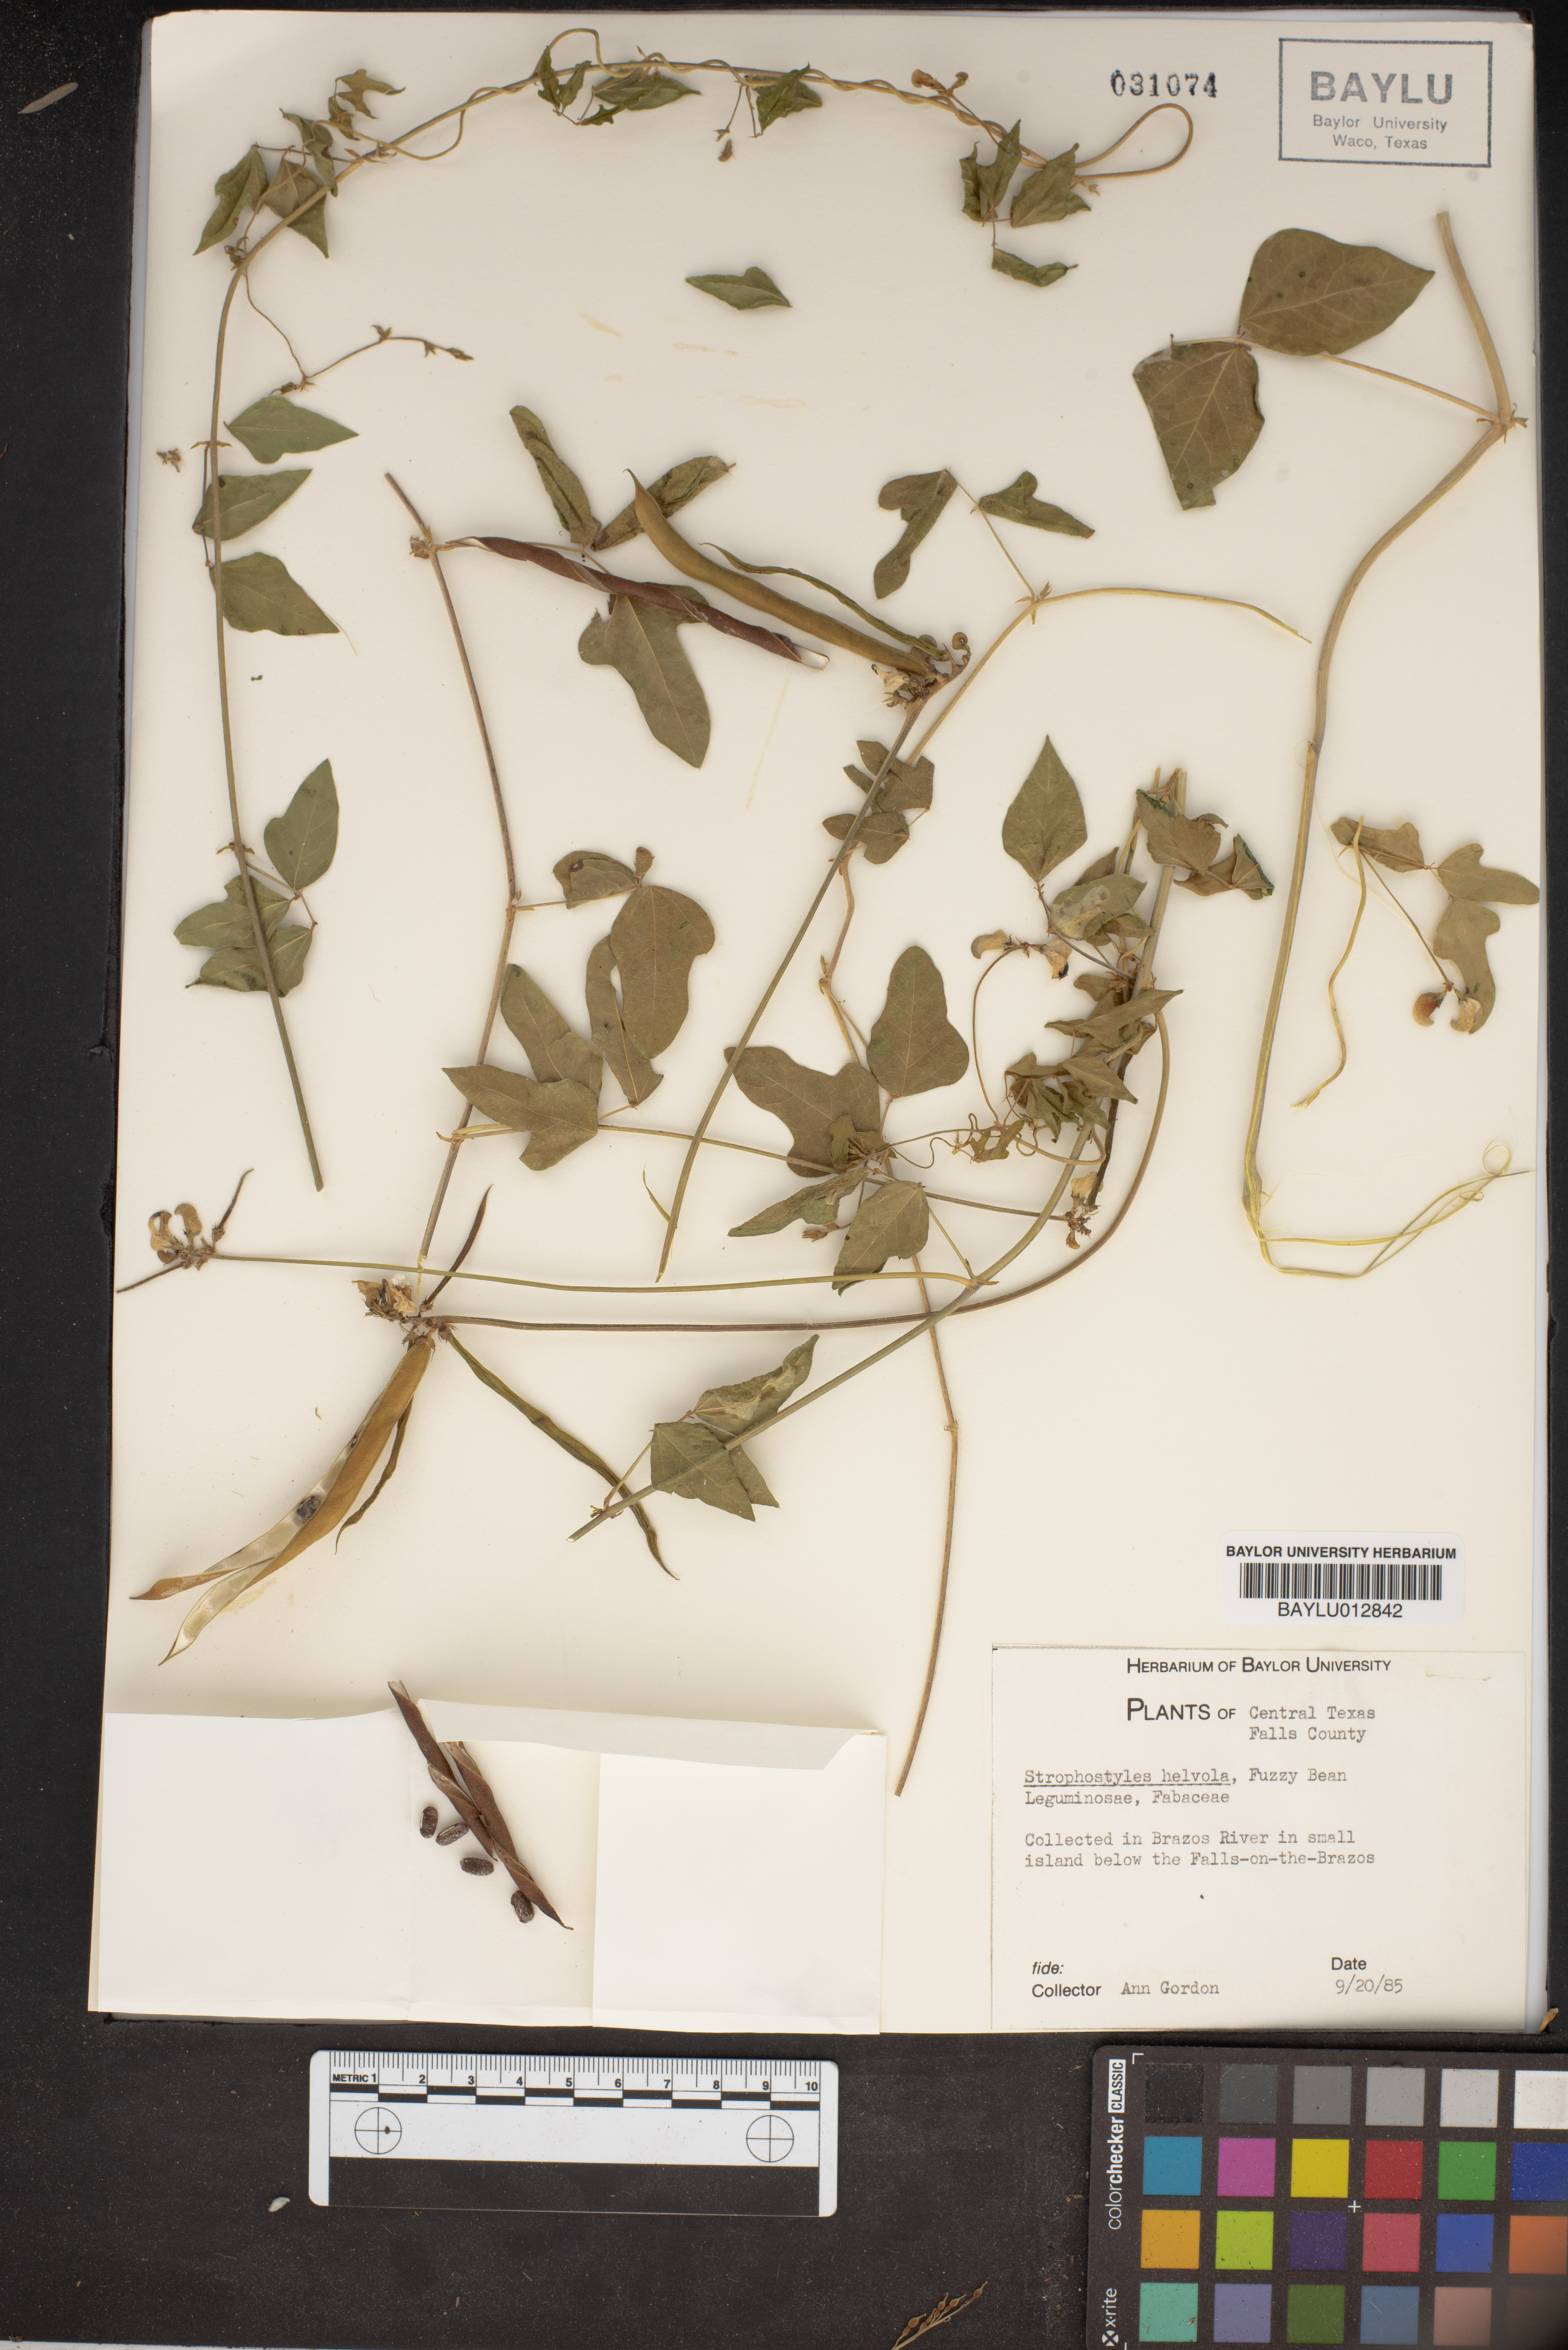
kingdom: Plantae
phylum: Tracheophyta
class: Magnoliopsida
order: Fabales
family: Fabaceae
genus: Strophostyles
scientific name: Strophostyles helvola
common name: Trailing wild bean
